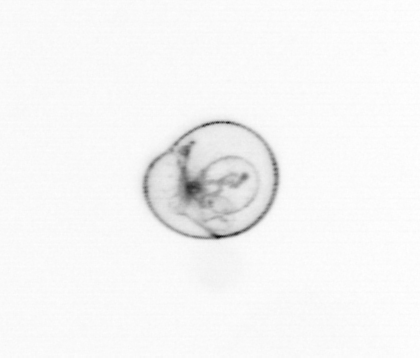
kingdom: Chromista
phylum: Myzozoa
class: Dinophyceae
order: Noctilucales
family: Noctilucaceae
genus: Noctiluca
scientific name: Noctiluca scintillans
